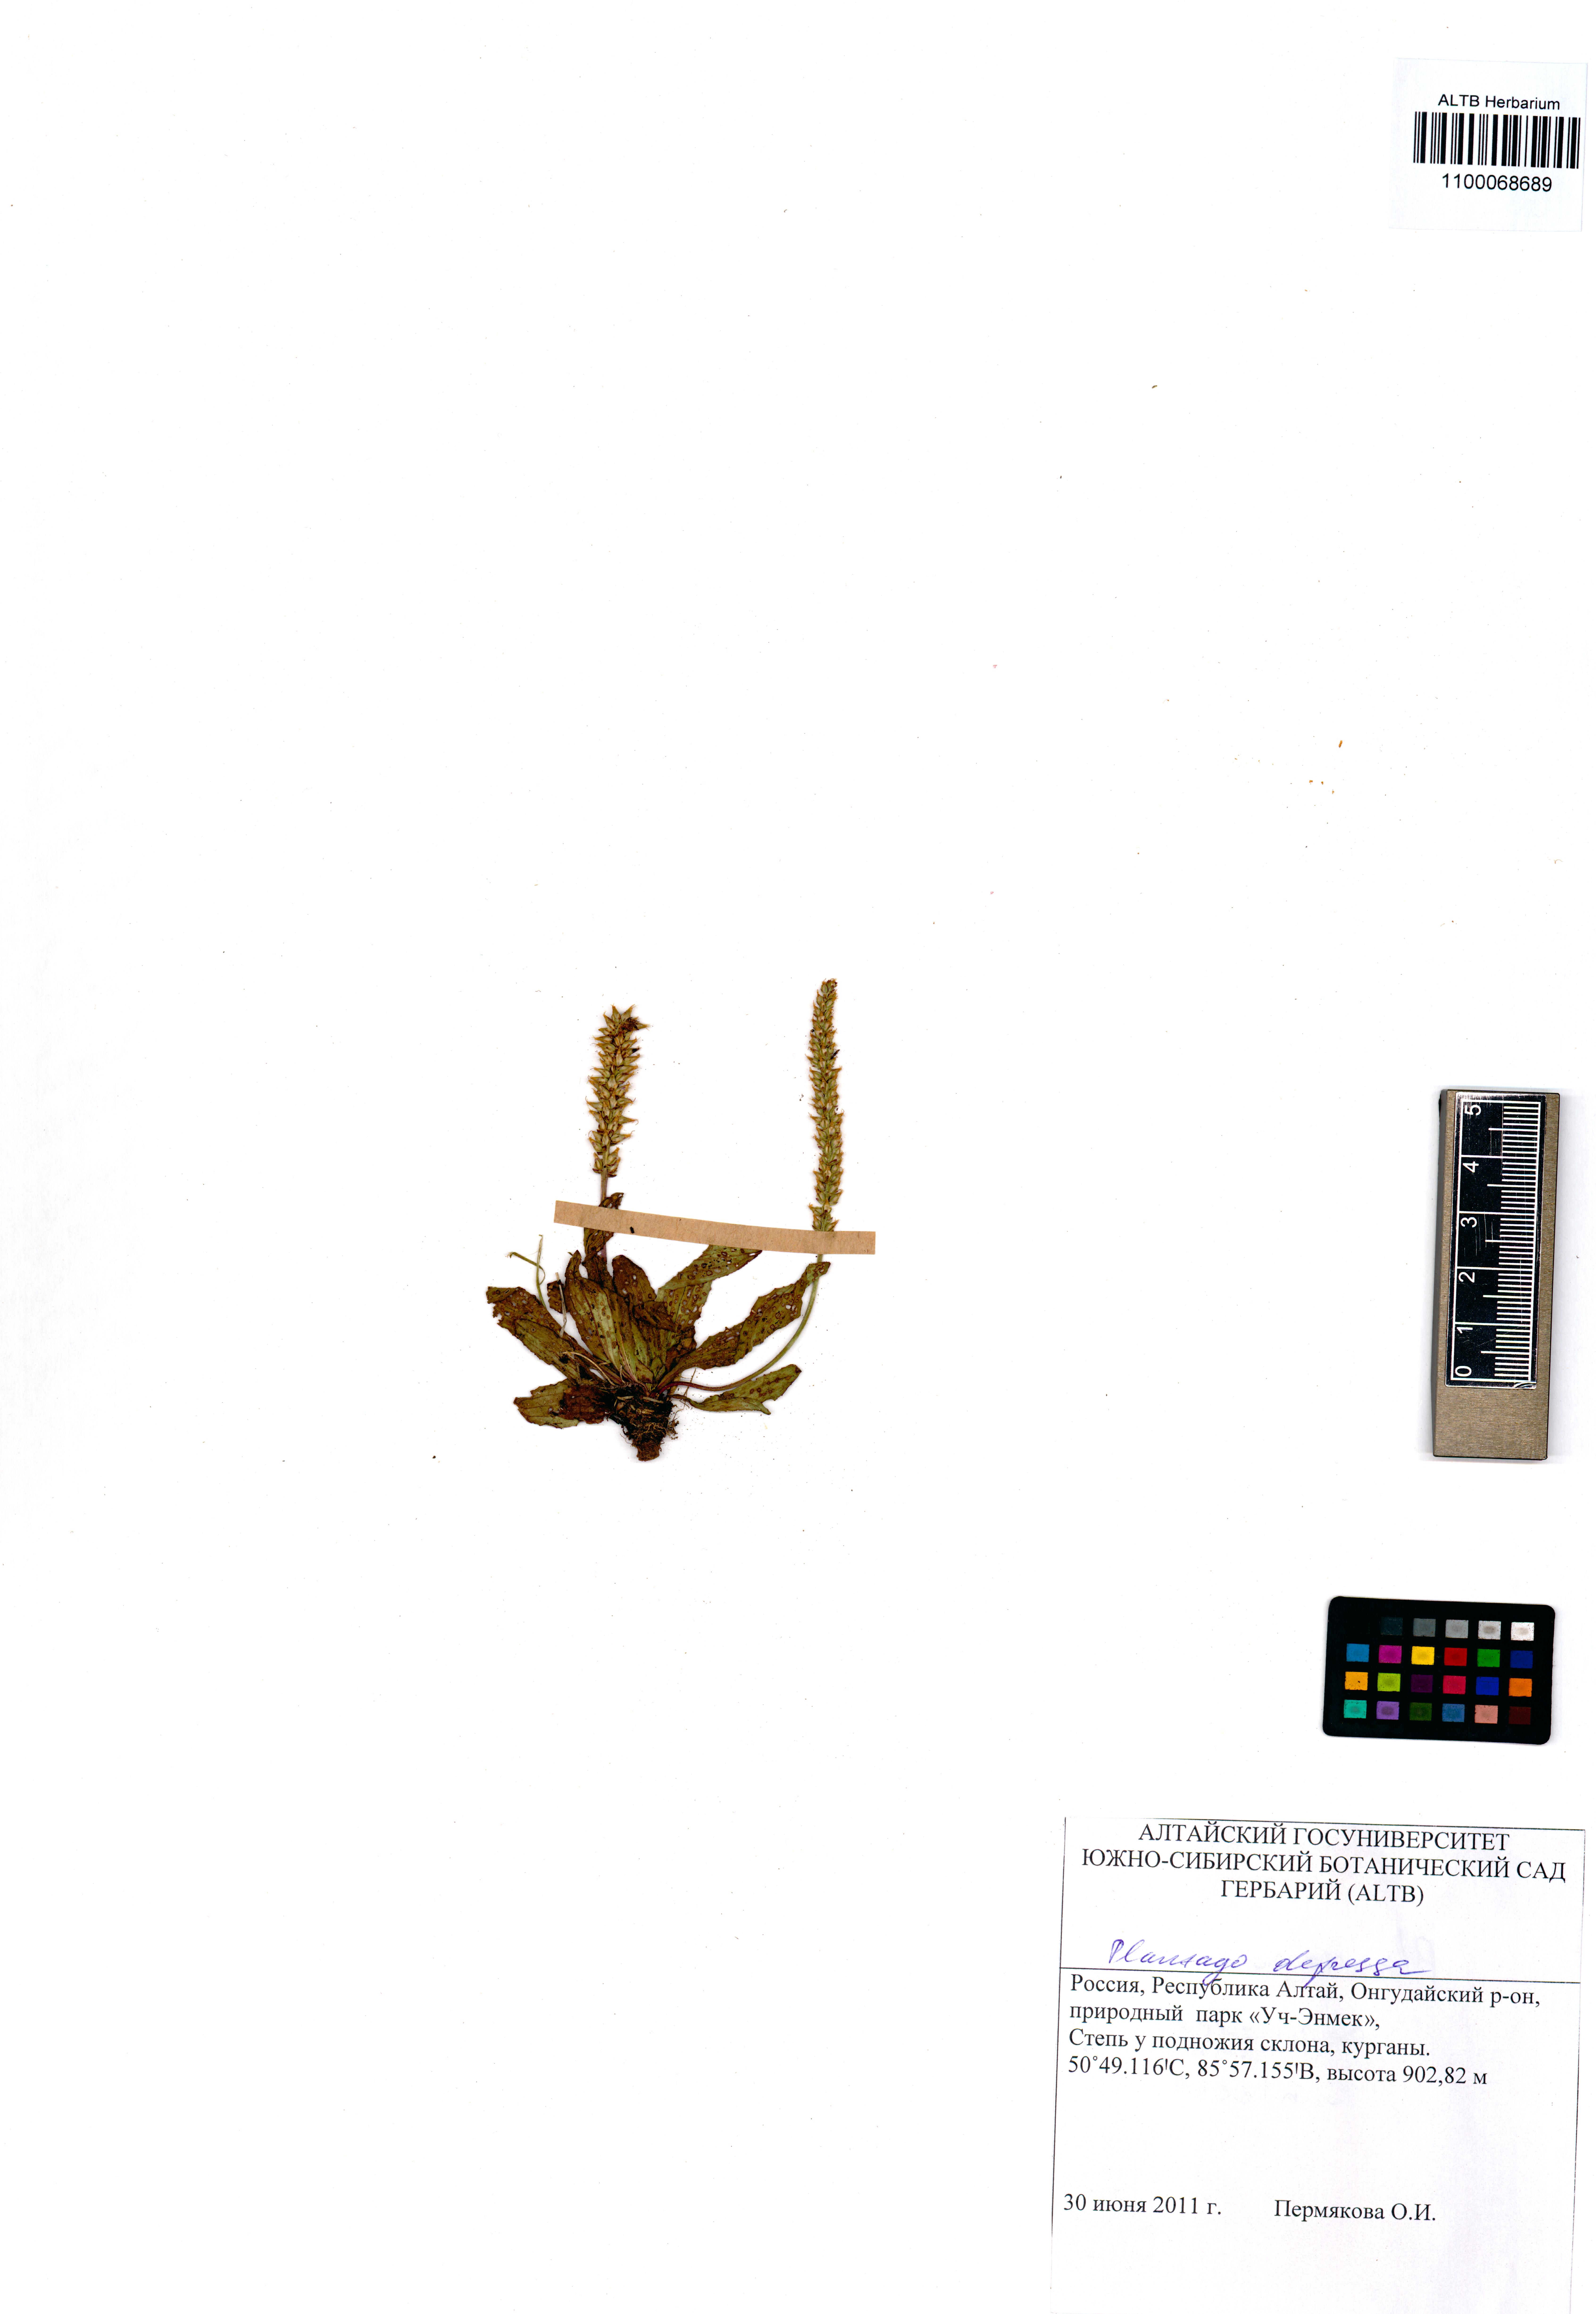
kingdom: Plantae
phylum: Tracheophyta
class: Magnoliopsida
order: Lamiales
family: Plantaginaceae
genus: Plantago
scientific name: Plantago depressa
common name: Depressed plantain
